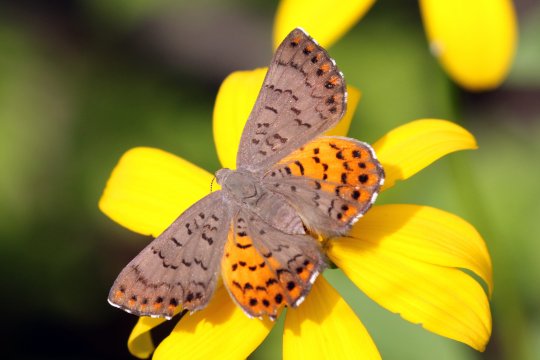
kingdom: Animalia
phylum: Arthropoda
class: Insecta
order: Lepidoptera
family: Sesiidae
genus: Sesia
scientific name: Sesia Emesis ares
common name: Ares Metalmark
